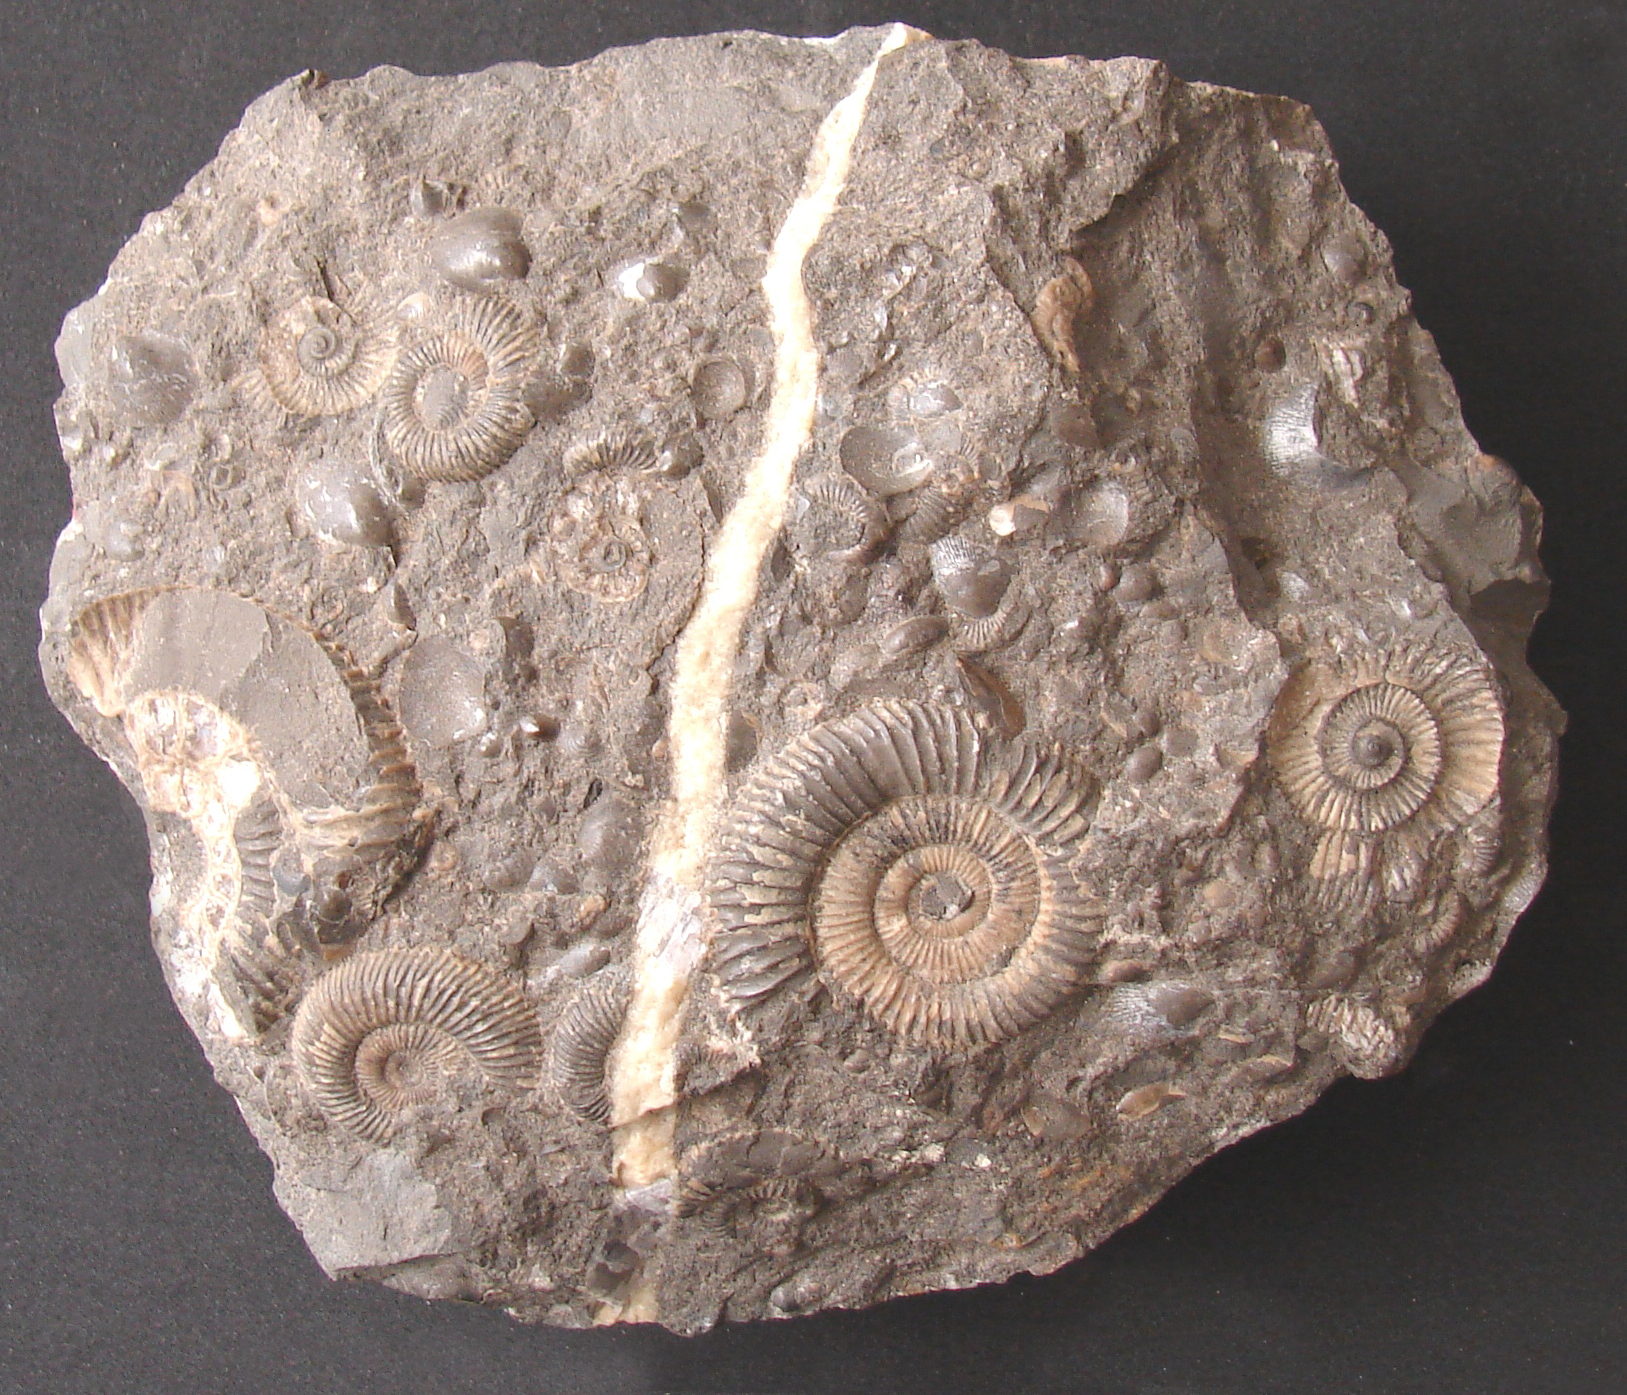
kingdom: Animalia
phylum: Mollusca
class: Cephalopoda
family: Dactylioceratidae
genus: Dactylioceras
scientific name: Dactylioceras commune
